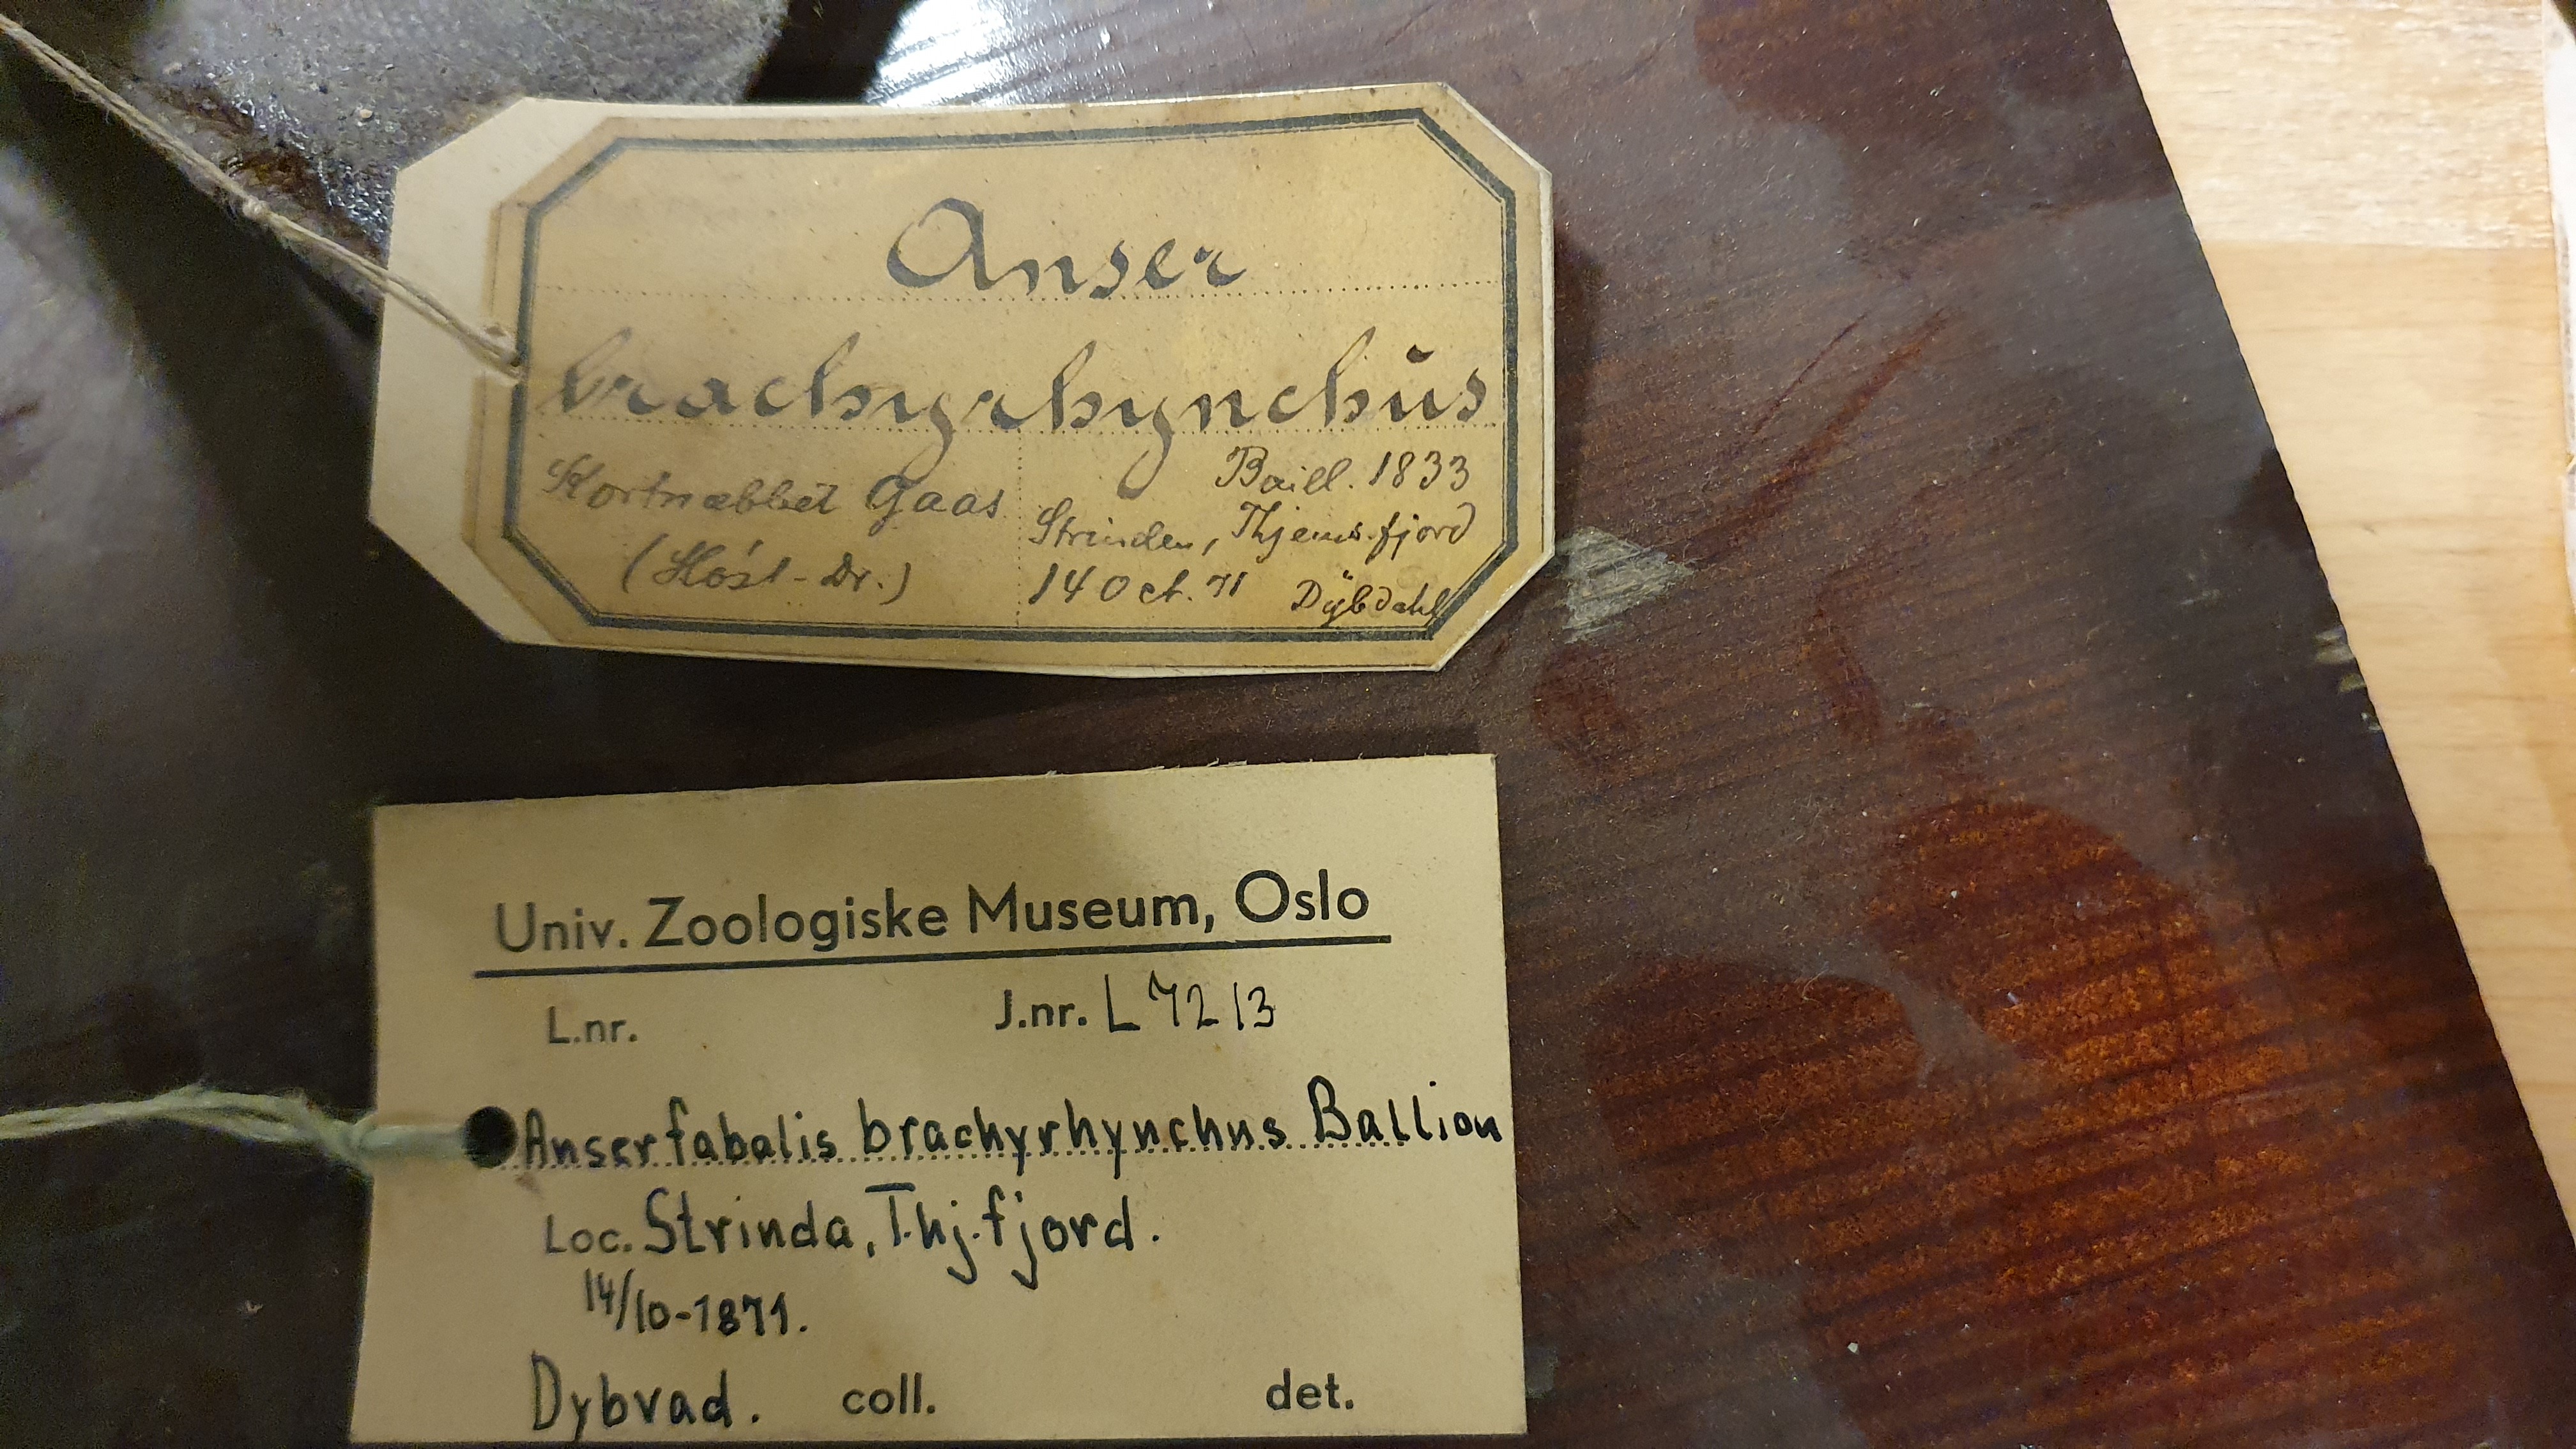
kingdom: Animalia
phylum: Chordata
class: Aves
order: Anseriformes
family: Anatidae
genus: Anser
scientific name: Anser brachyrhynchus
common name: Pink-footed goose
